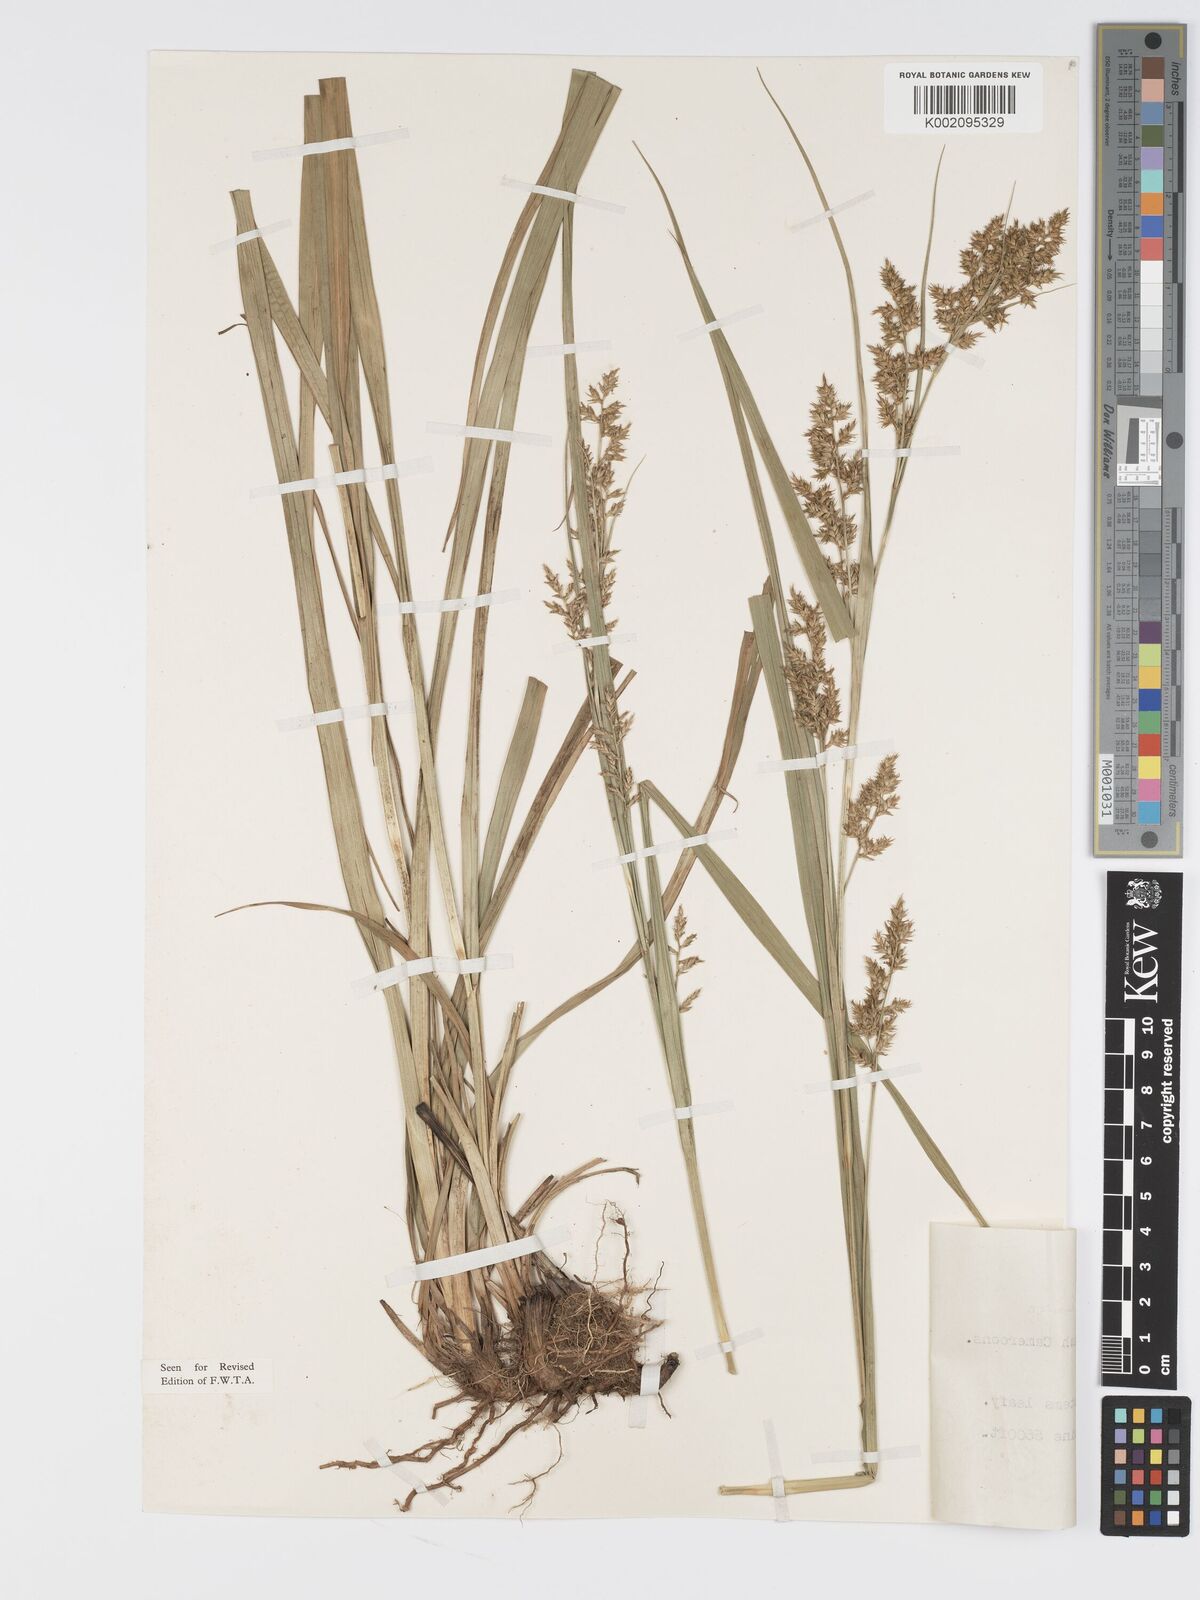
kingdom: Plantae
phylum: Tracheophyta
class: Liliopsida
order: Poales
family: Cyperaceae
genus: Carex
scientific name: Carex echinochloe
